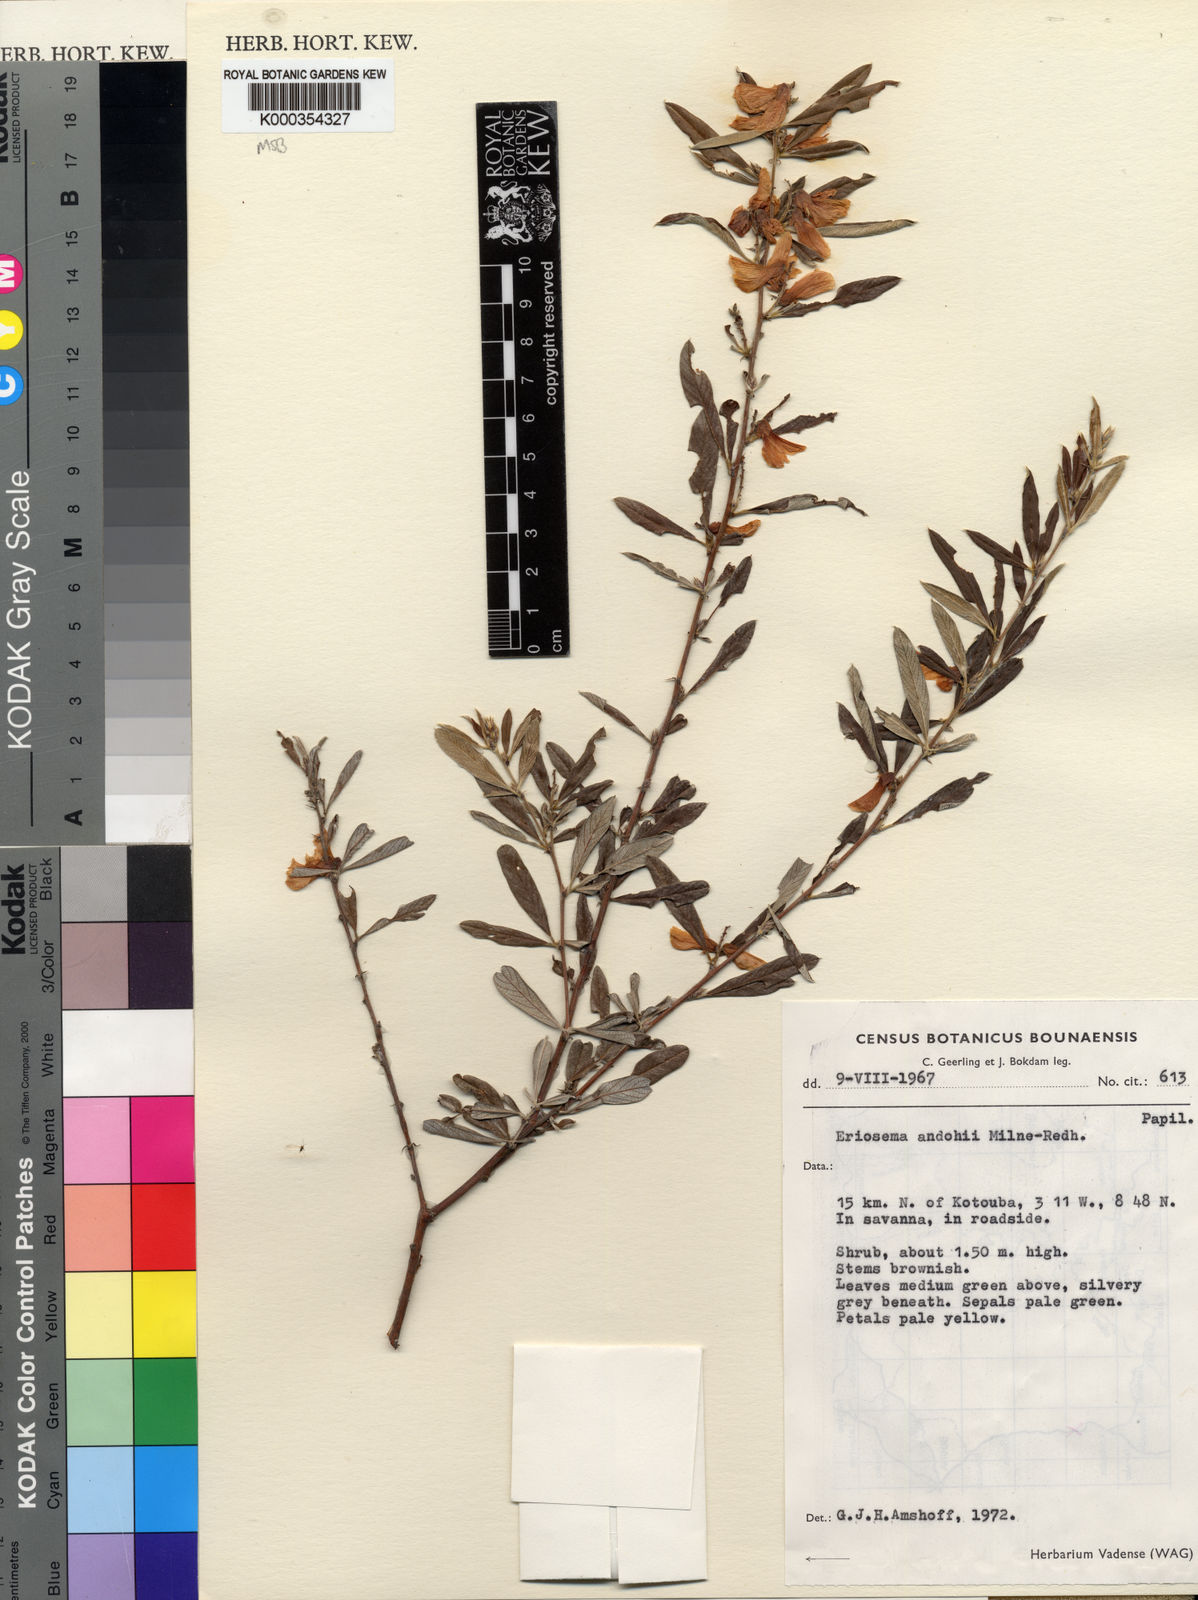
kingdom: Plantae
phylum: Tracheophyta
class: Magnoliopsida
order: Fabales
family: Fabaceae
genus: Eriosema
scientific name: Eriosema andohii
